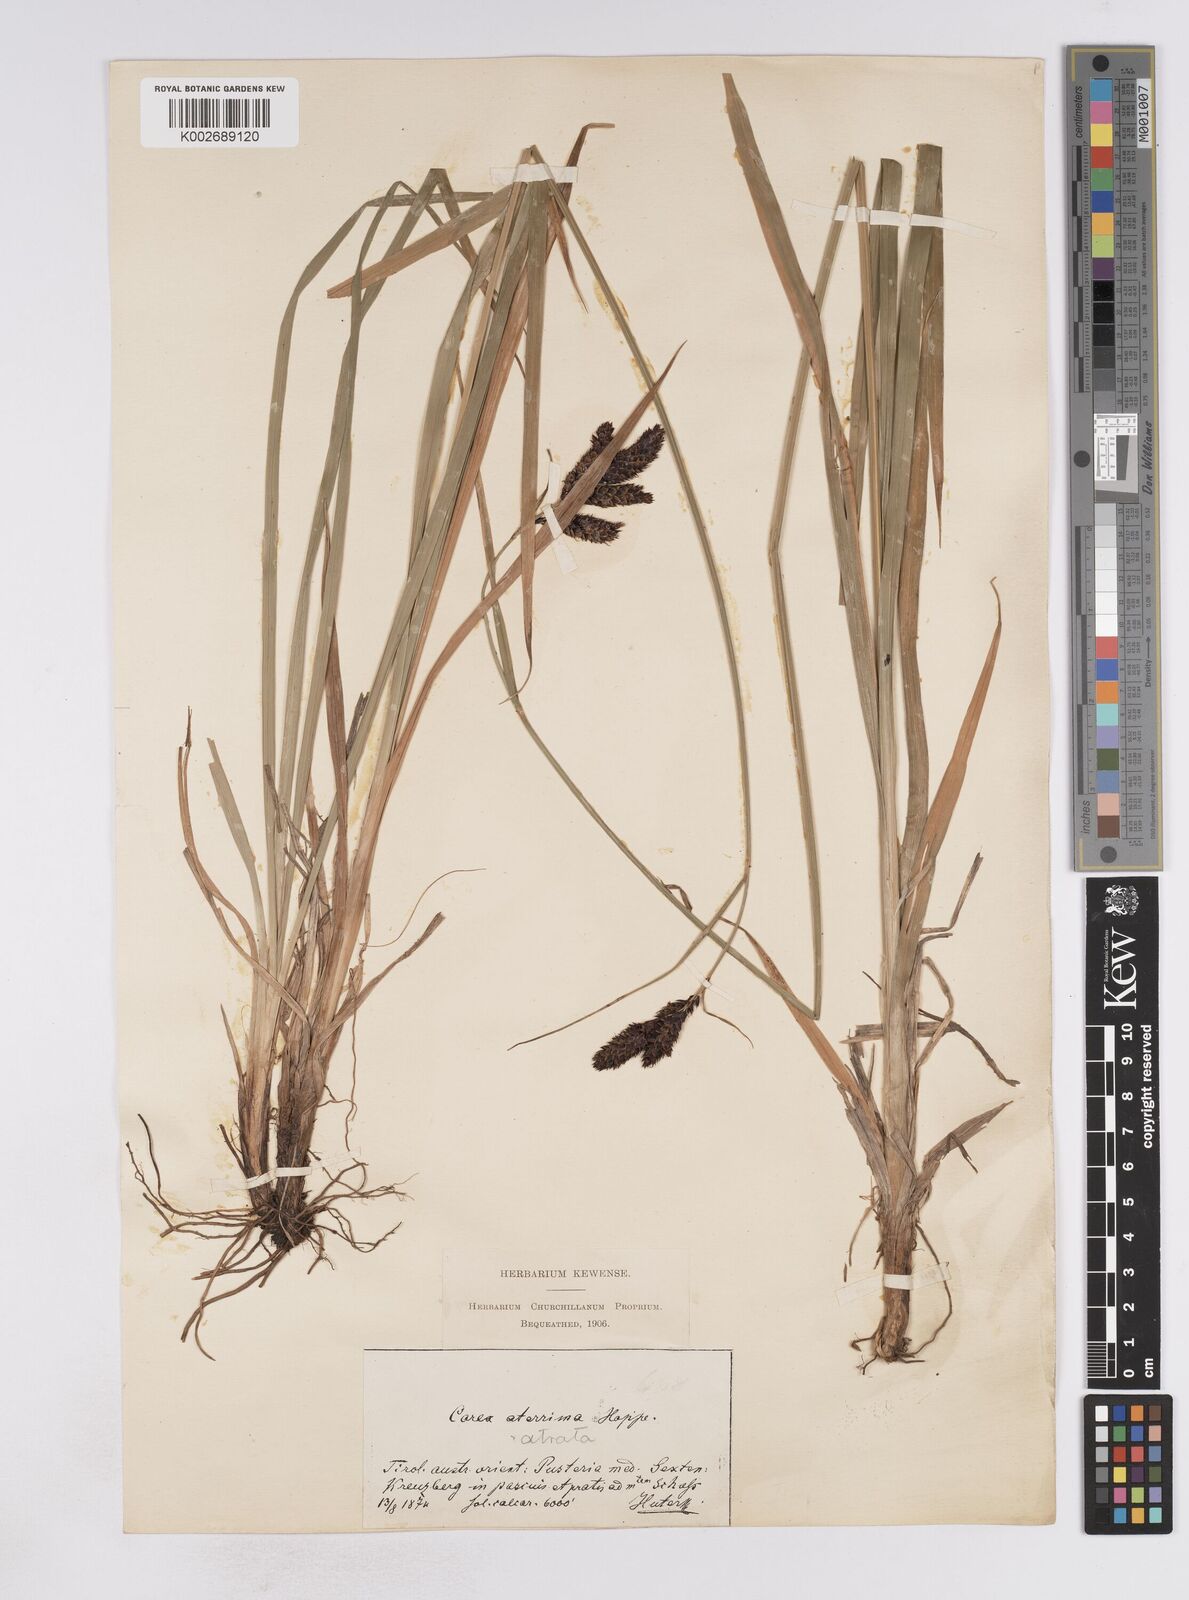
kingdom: Plantae
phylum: Tracheophyta
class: Liliopsida
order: Poales
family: Cyperaceae
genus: Carex
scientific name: Carex aterrima
